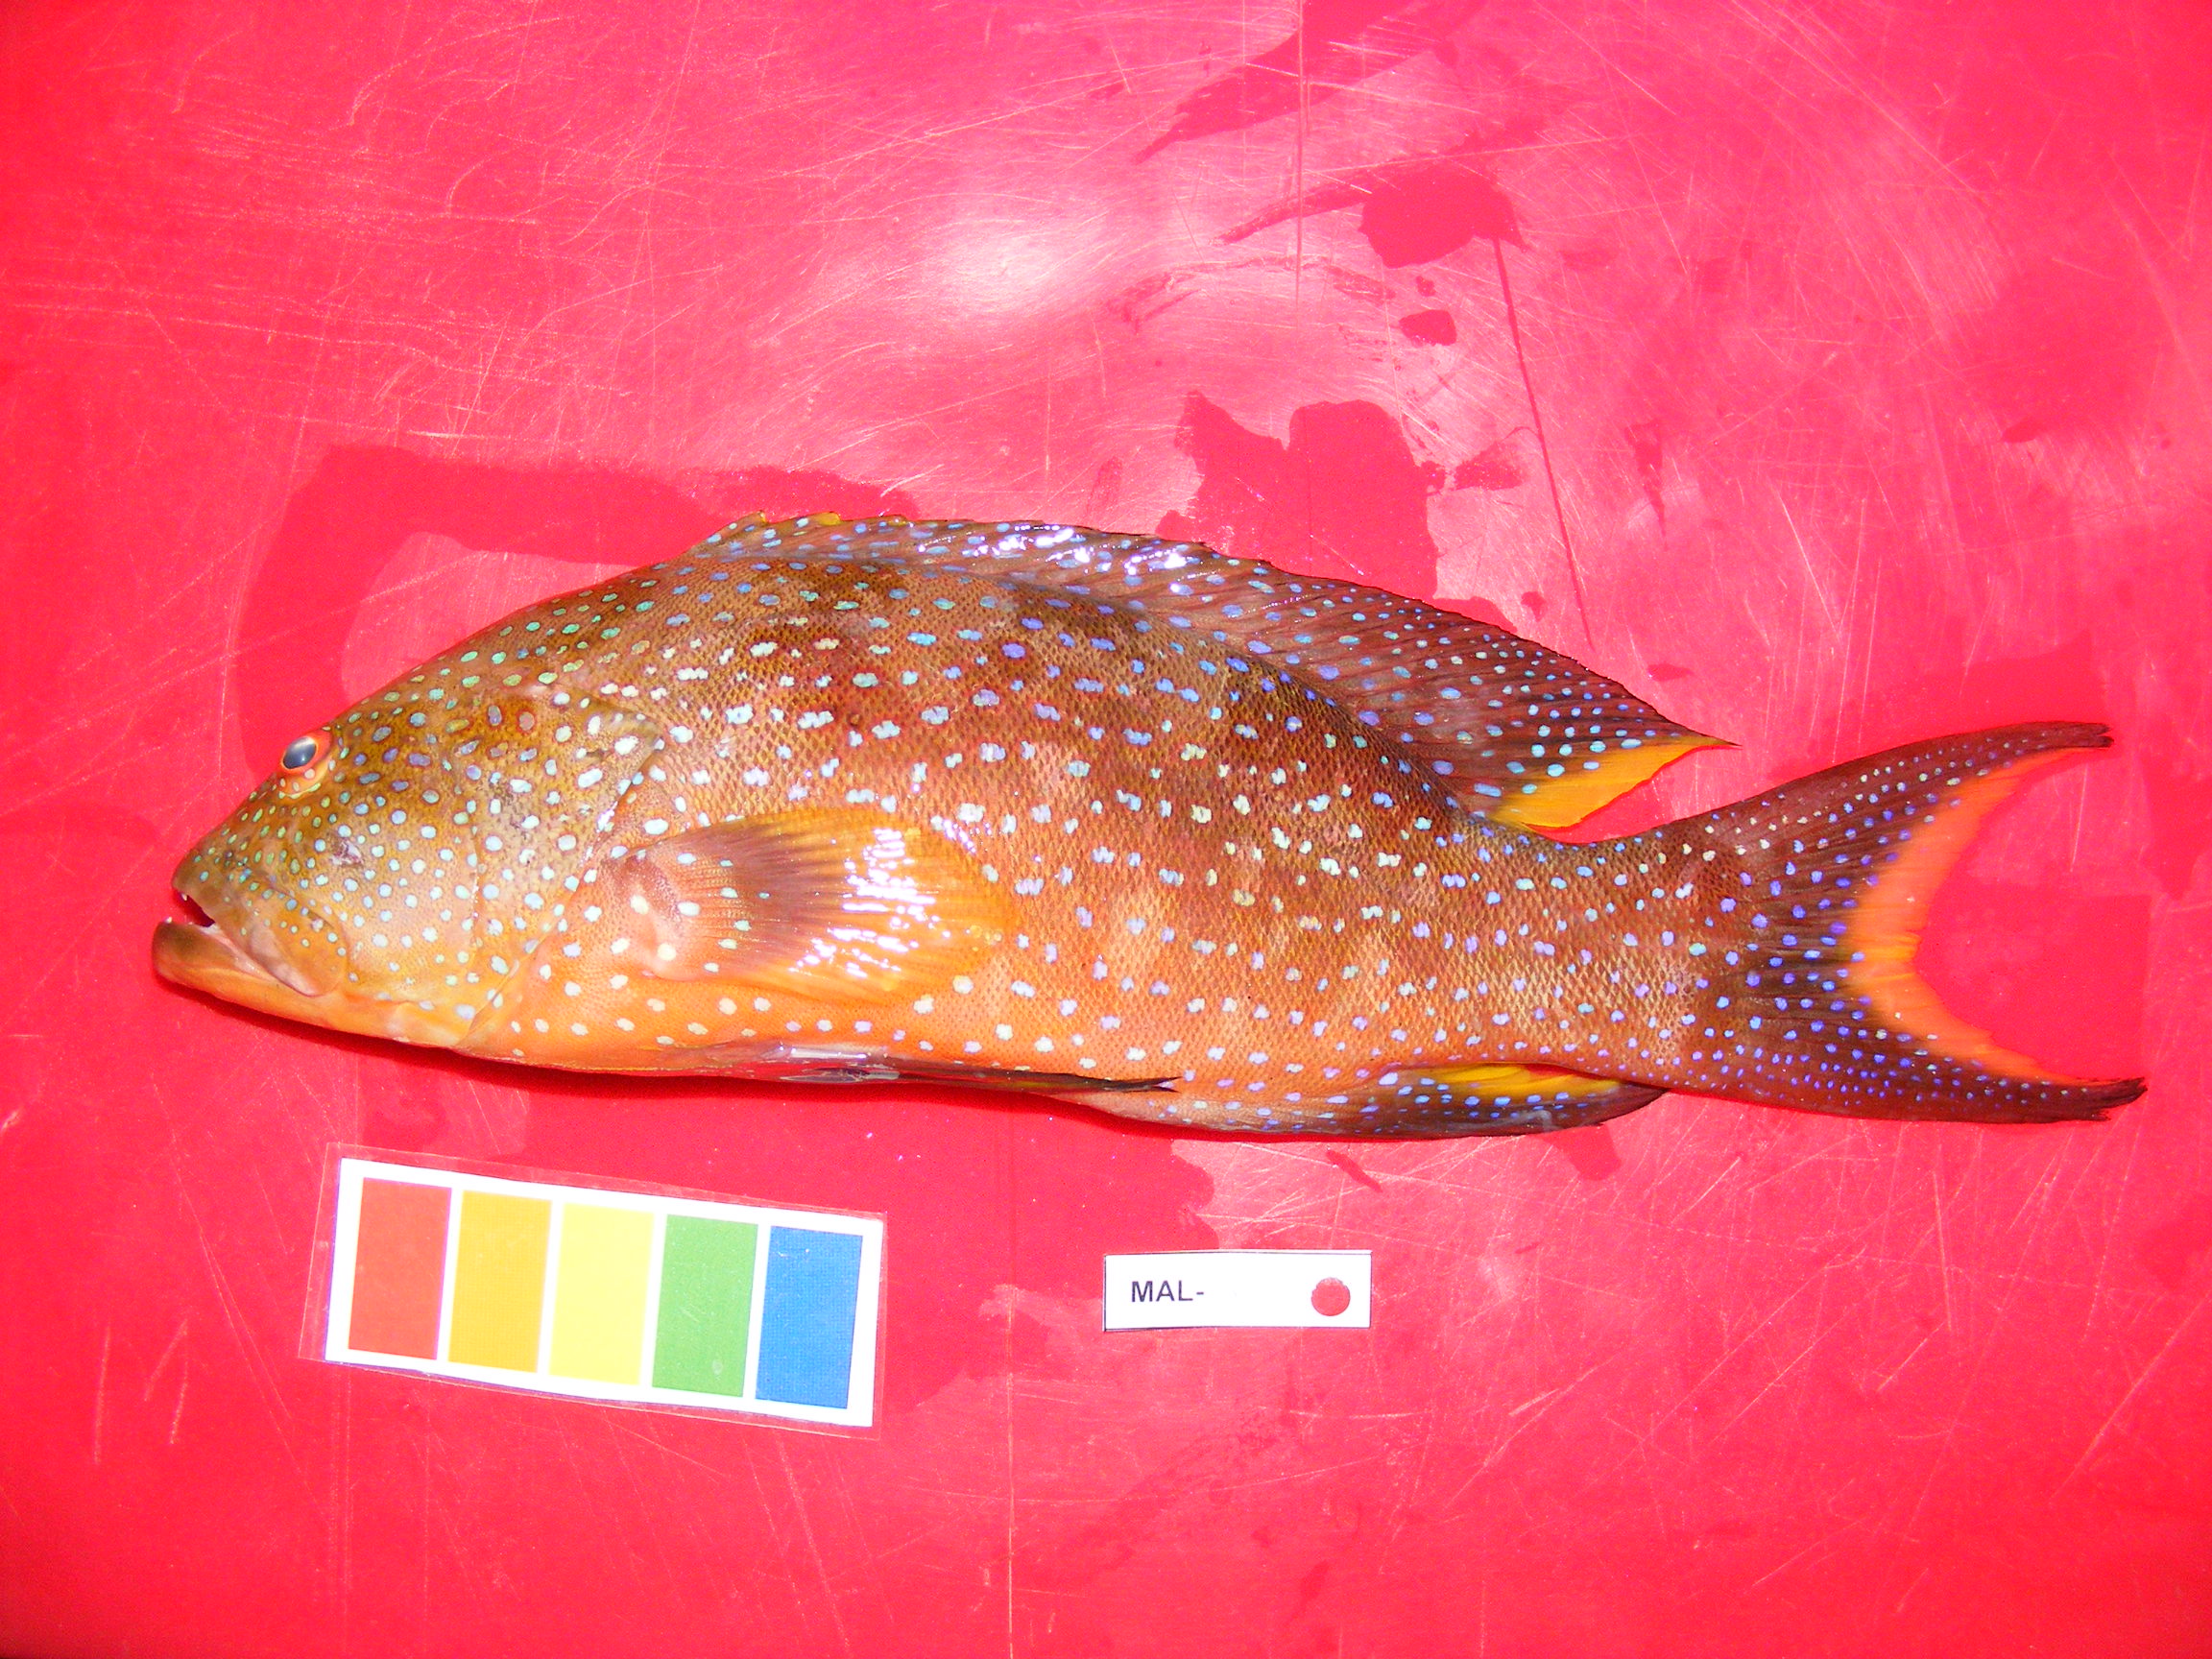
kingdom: Animalia
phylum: Chordata
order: Perciformes
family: Serranidae
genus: Variola
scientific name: Variola louti
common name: Yellow-edged lyretail
